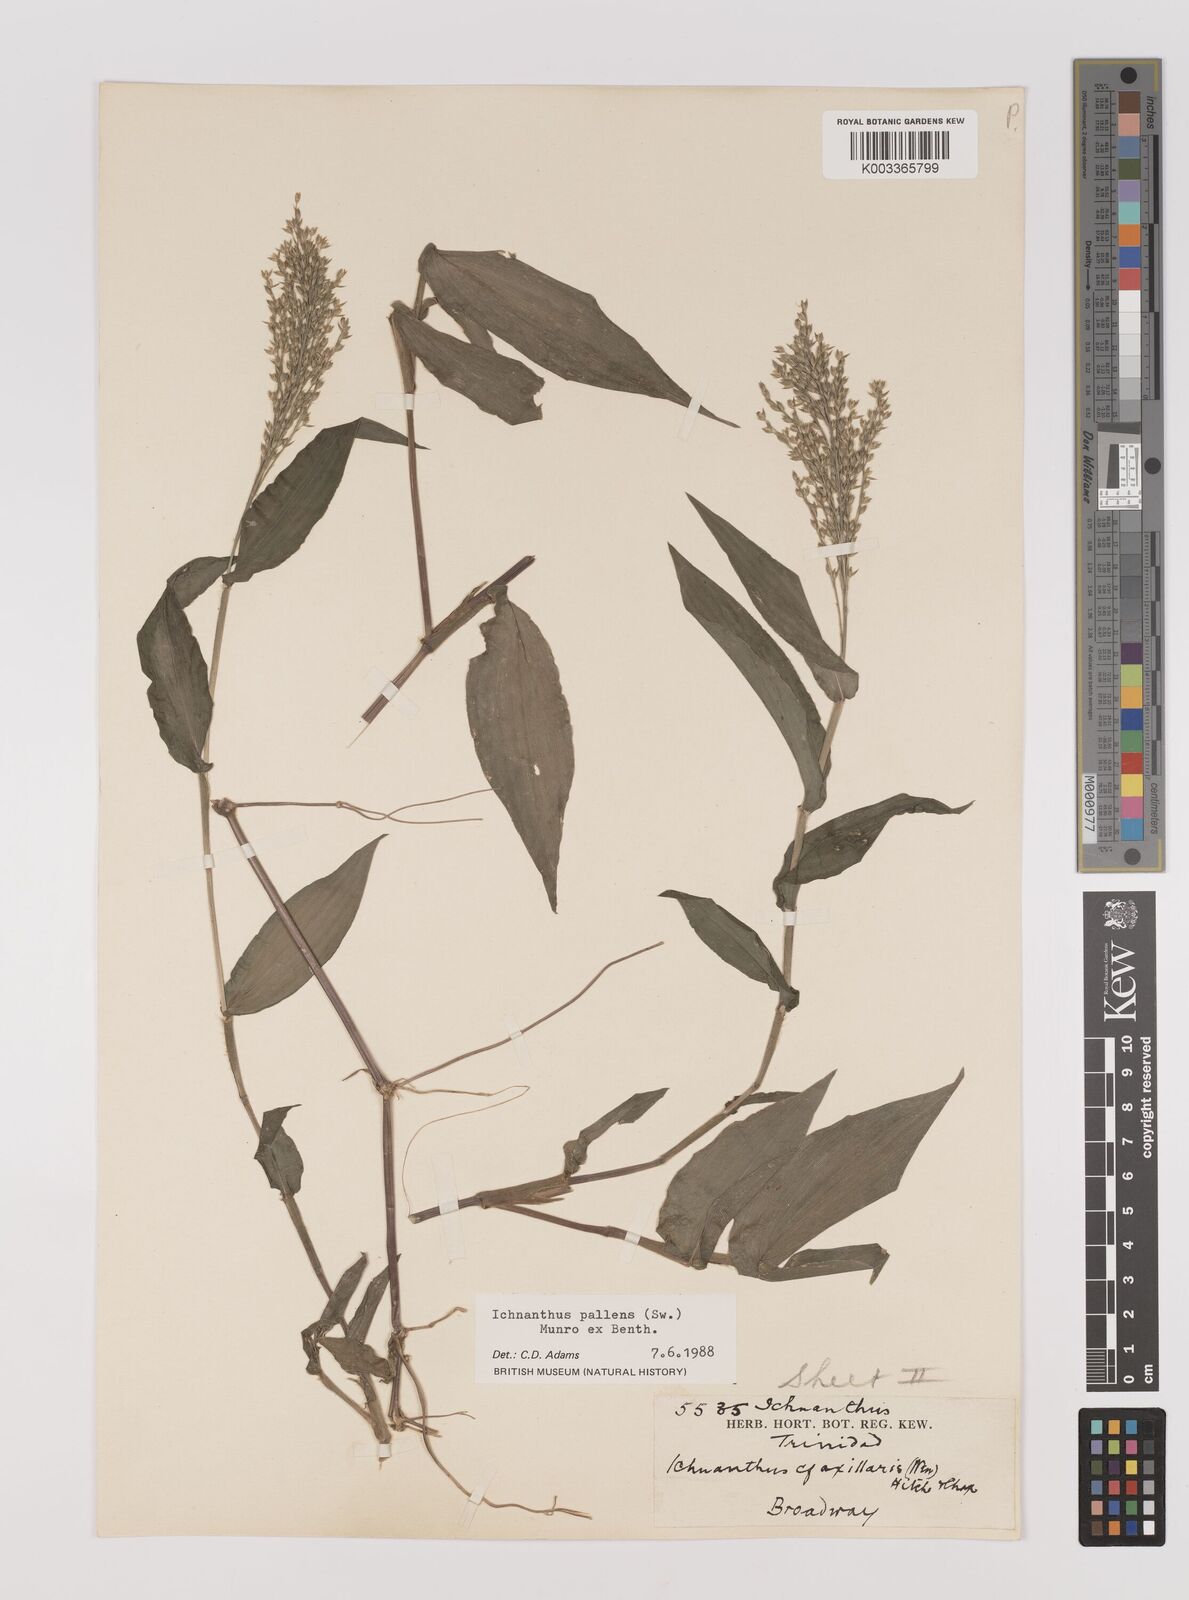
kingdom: Plantae
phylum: Tracheophyta
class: Liliopsida
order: Poales
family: Poaceae
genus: Ichnanthus
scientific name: Ichnanthus pallens
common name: Water grass
